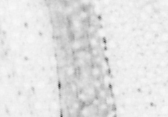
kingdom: Animalia
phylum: Chordata
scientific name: Chordata
